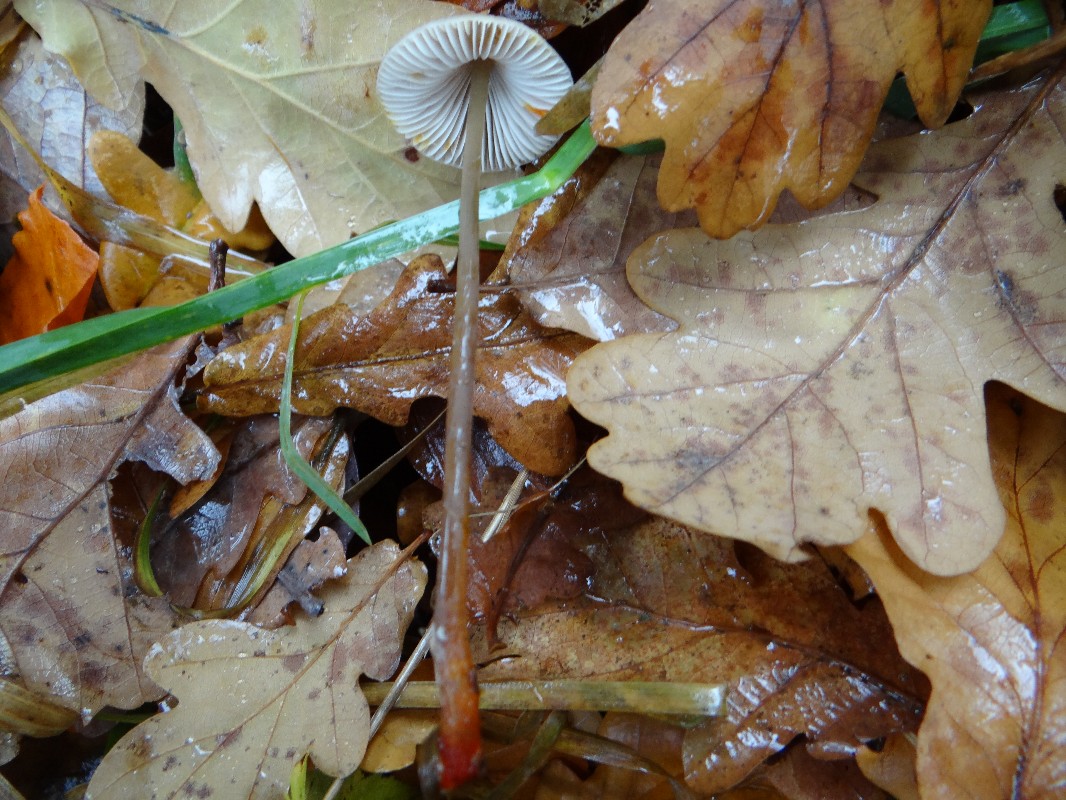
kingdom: Fungi
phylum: Basidiomycota
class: Agaricomycetes
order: Agaricales
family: Mycenaceae
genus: Mycena
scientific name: Mycena crocata
